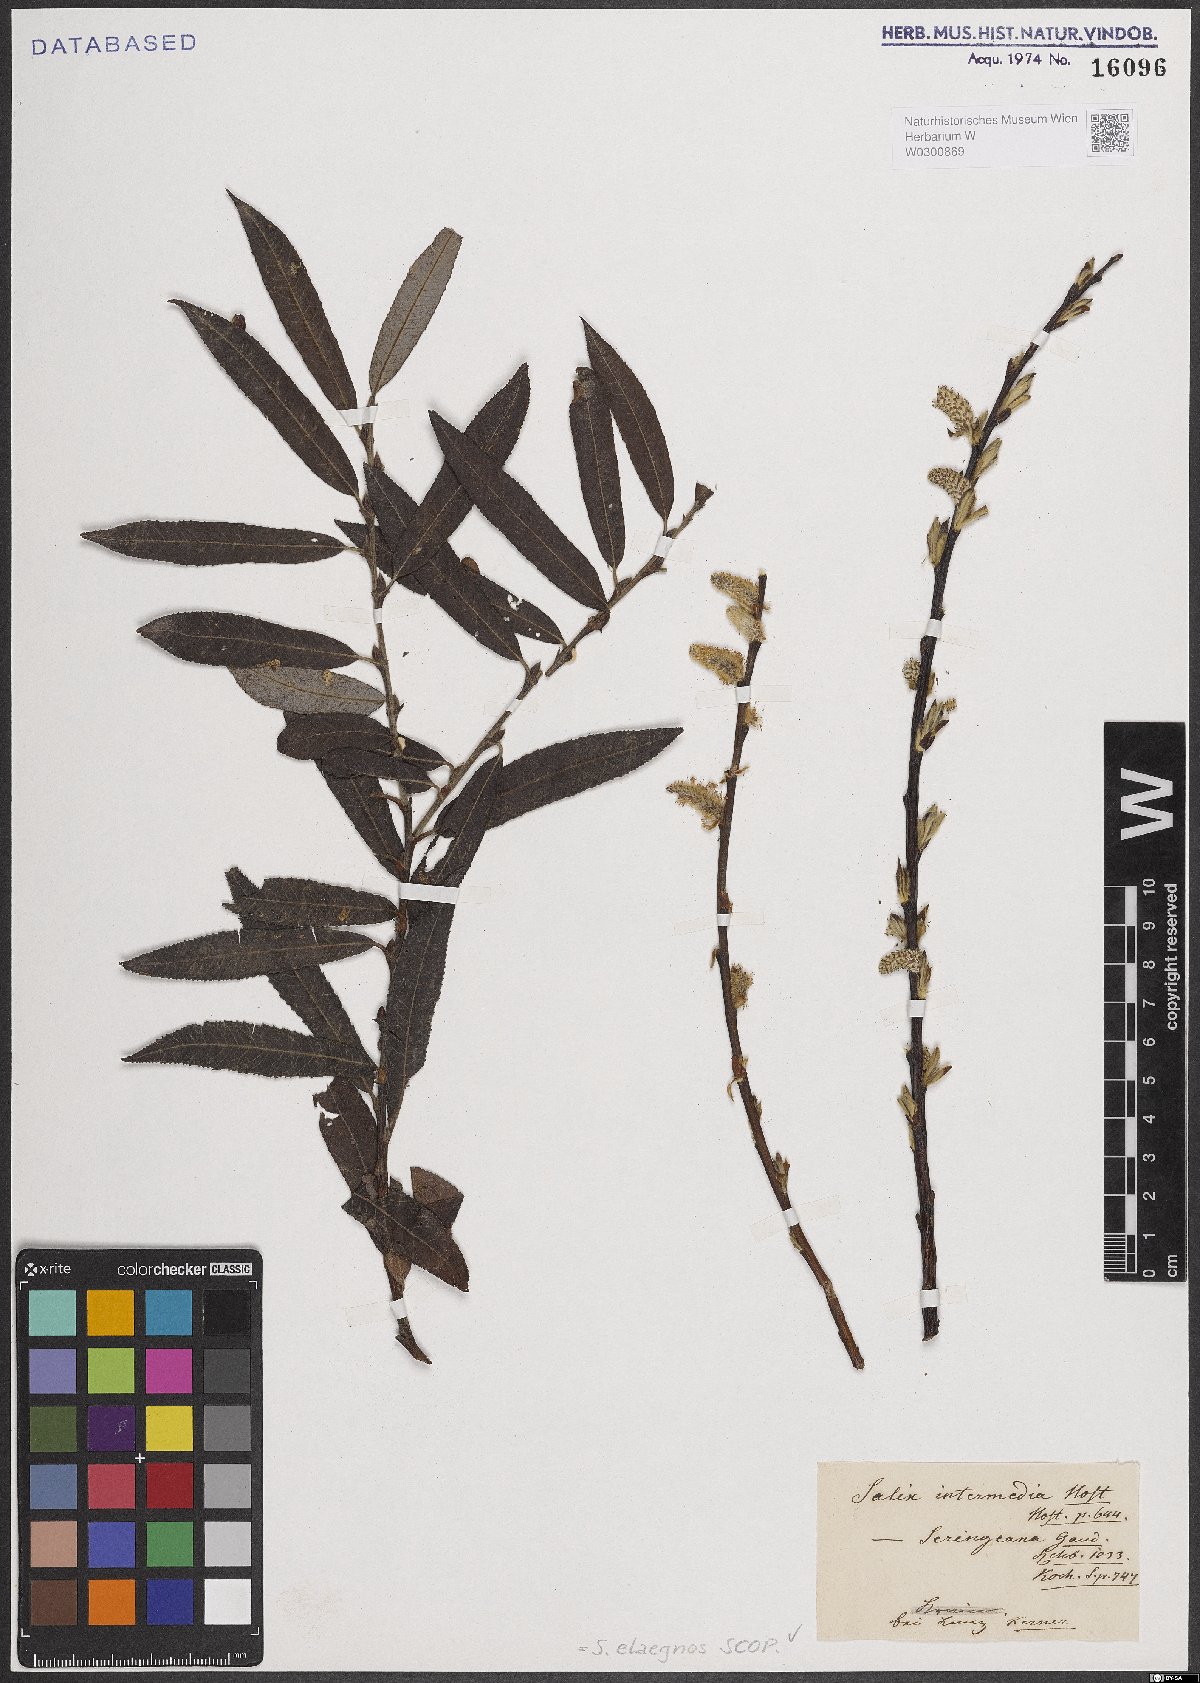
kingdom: Plantae
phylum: Tracheophyta
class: Magnoliopsida
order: Malpighiales
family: Salicaceae
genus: Salix
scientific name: Salix eleagnos
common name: Elaeagnus willow
